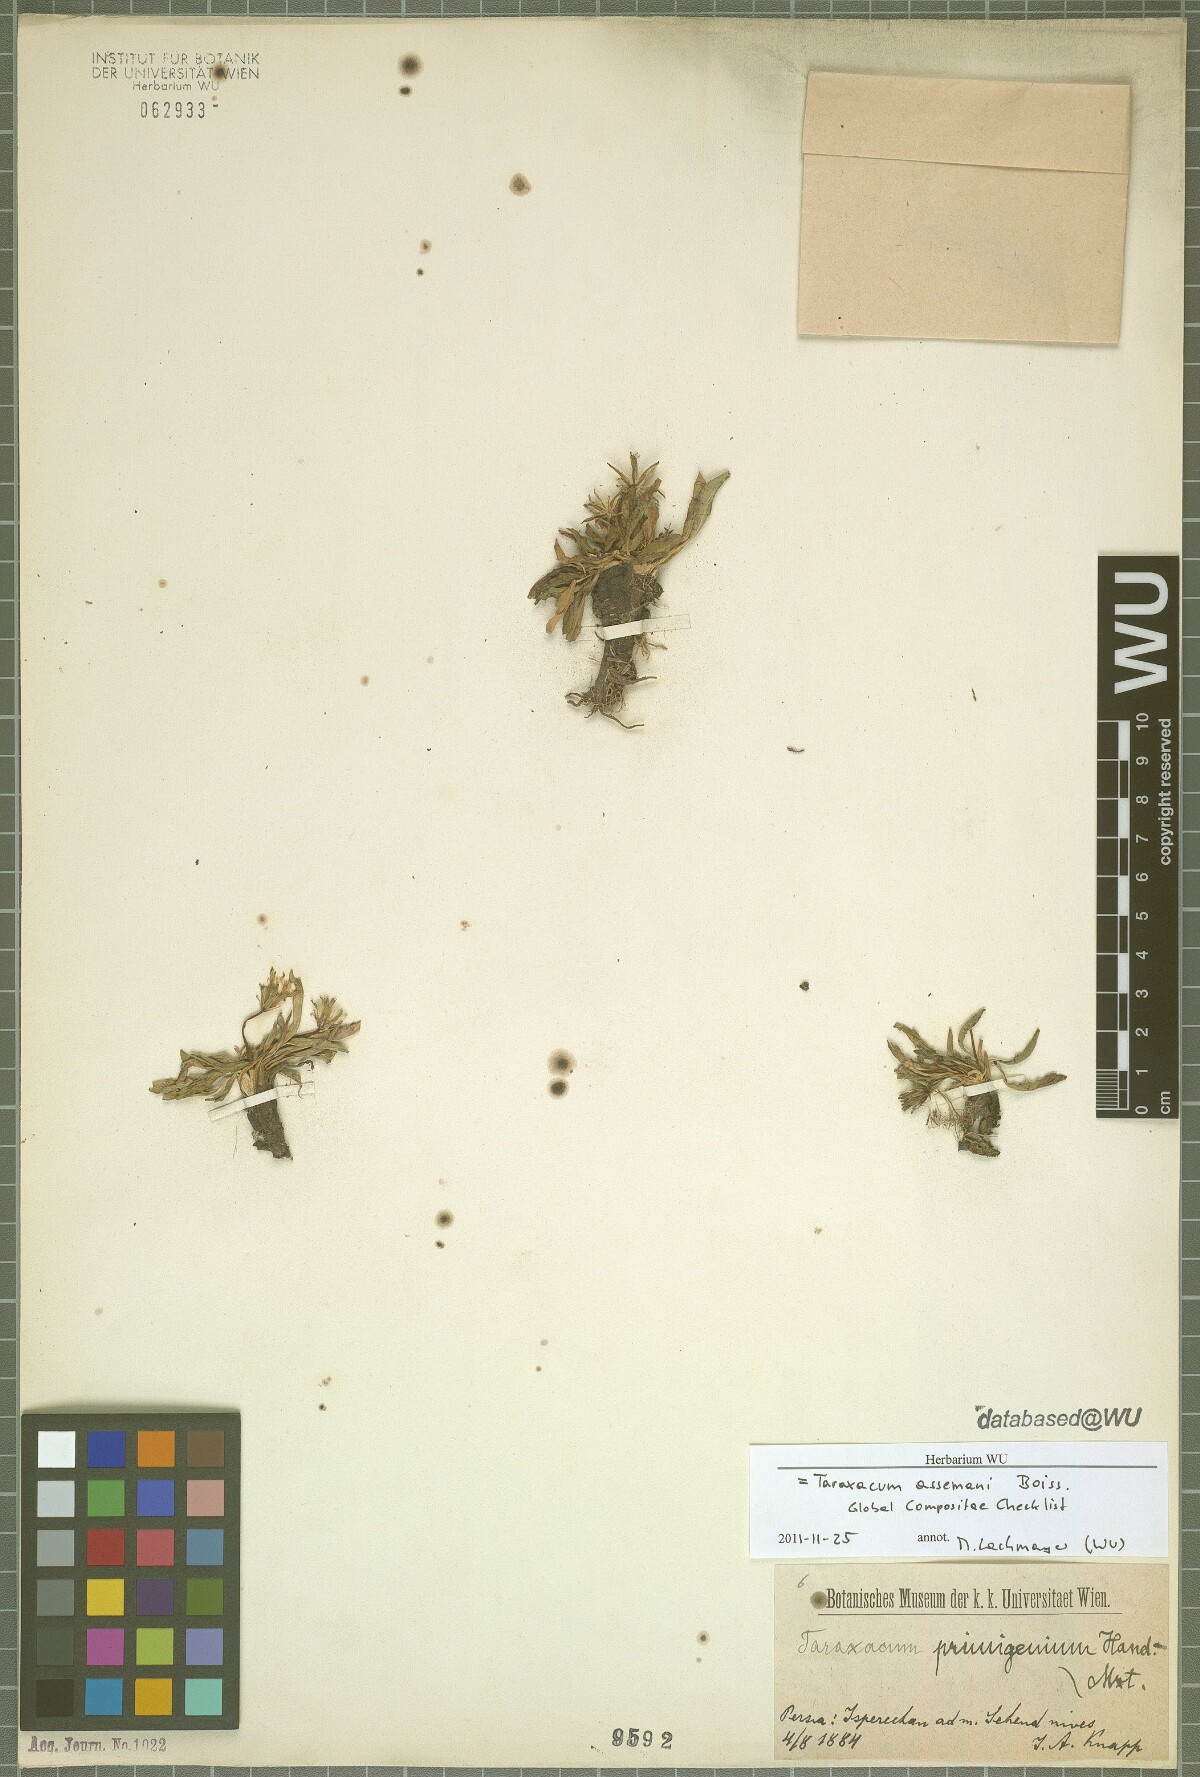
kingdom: Plantae
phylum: Tracheophyta
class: Magnoliopsida
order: Asterales
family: Asteraceae
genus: Taraxacum
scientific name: Taraxacum assemanii
